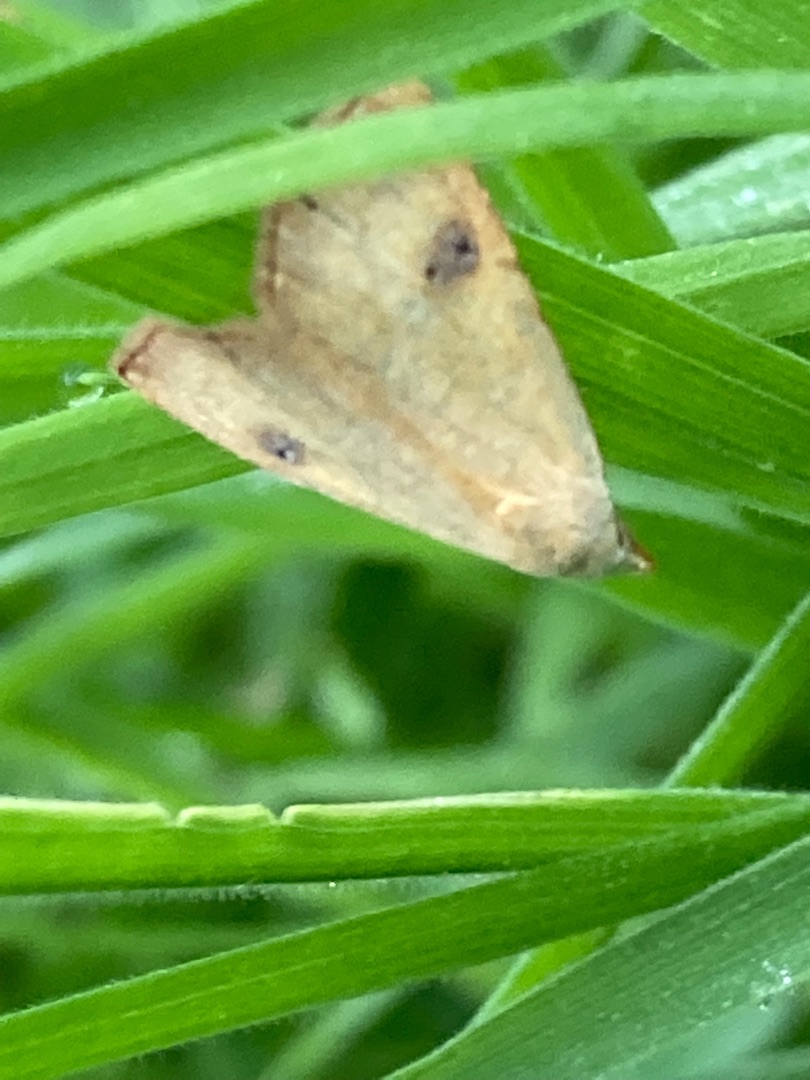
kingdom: Animalia
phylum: Arthropoda
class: Insecta
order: Lepidoptera
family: Erebidae
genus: Rivula
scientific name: Rivula sericealis
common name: Lille å-ugle
